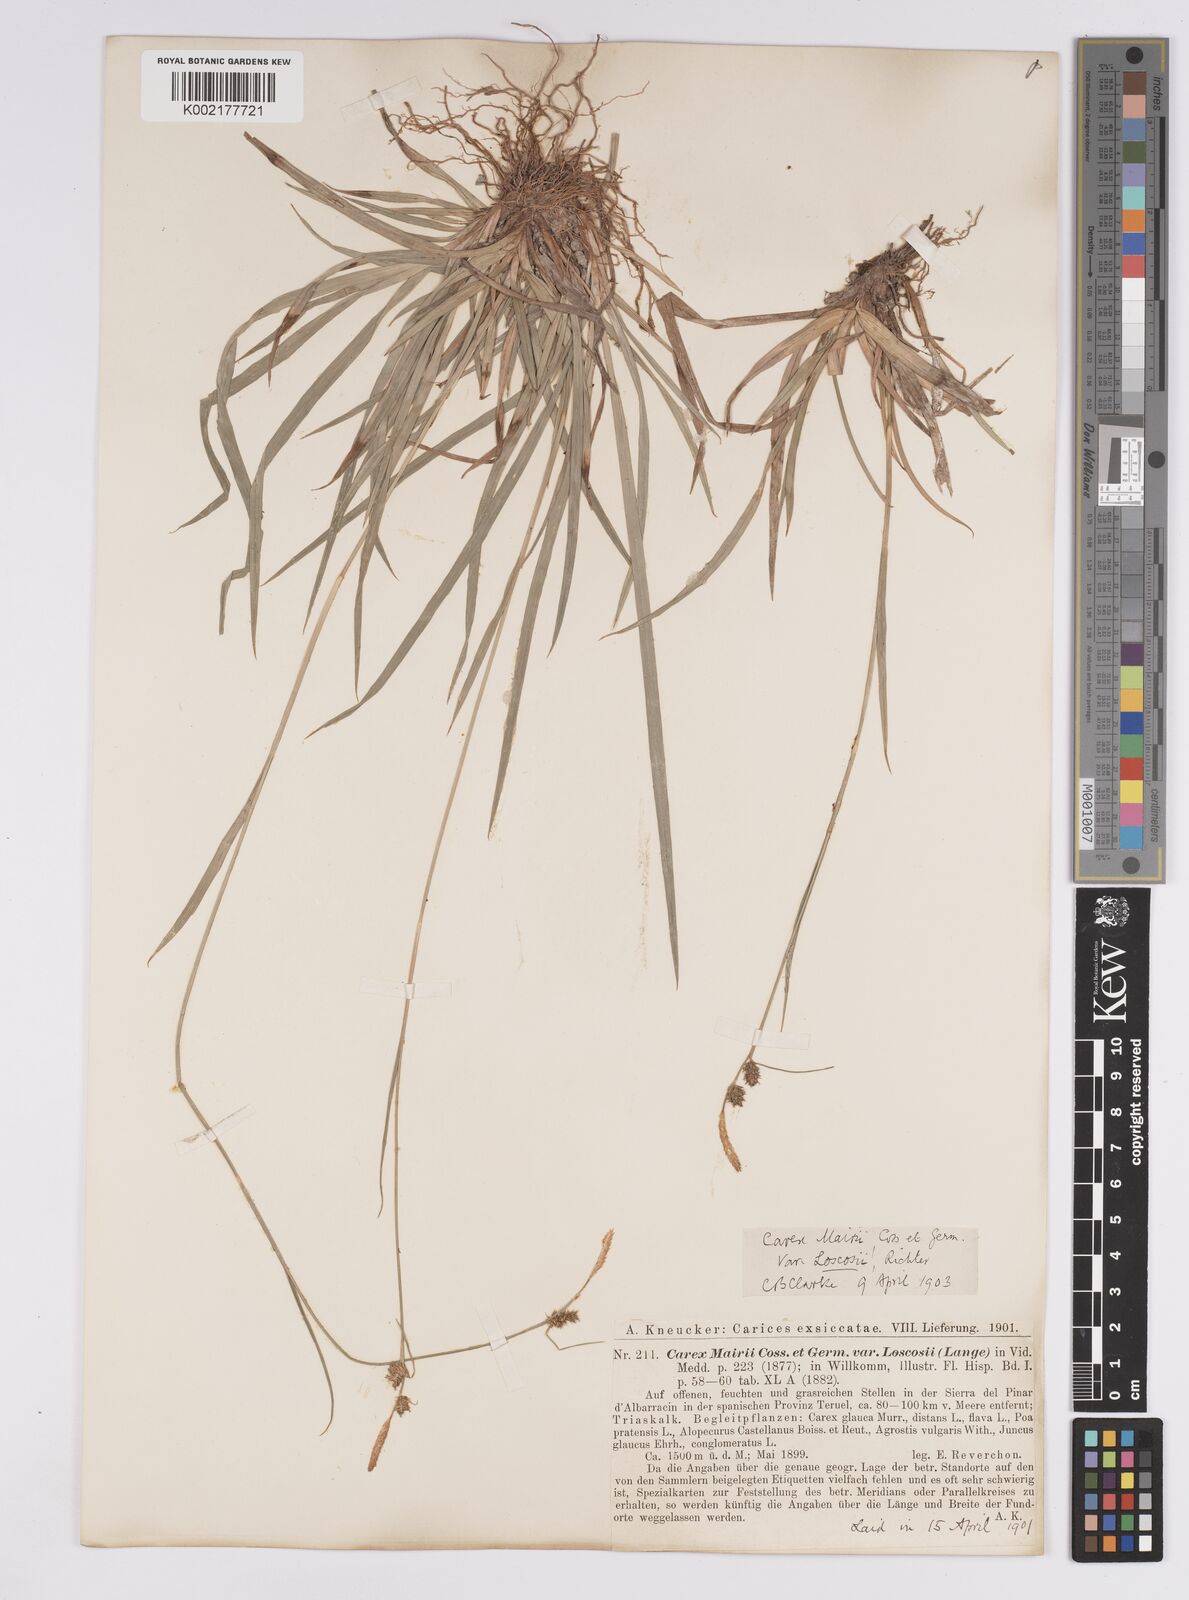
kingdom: Plantae
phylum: Tracheophyta
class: Liliopsida
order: Poales
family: Cyperaceae
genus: Carex
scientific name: Carex mairei
